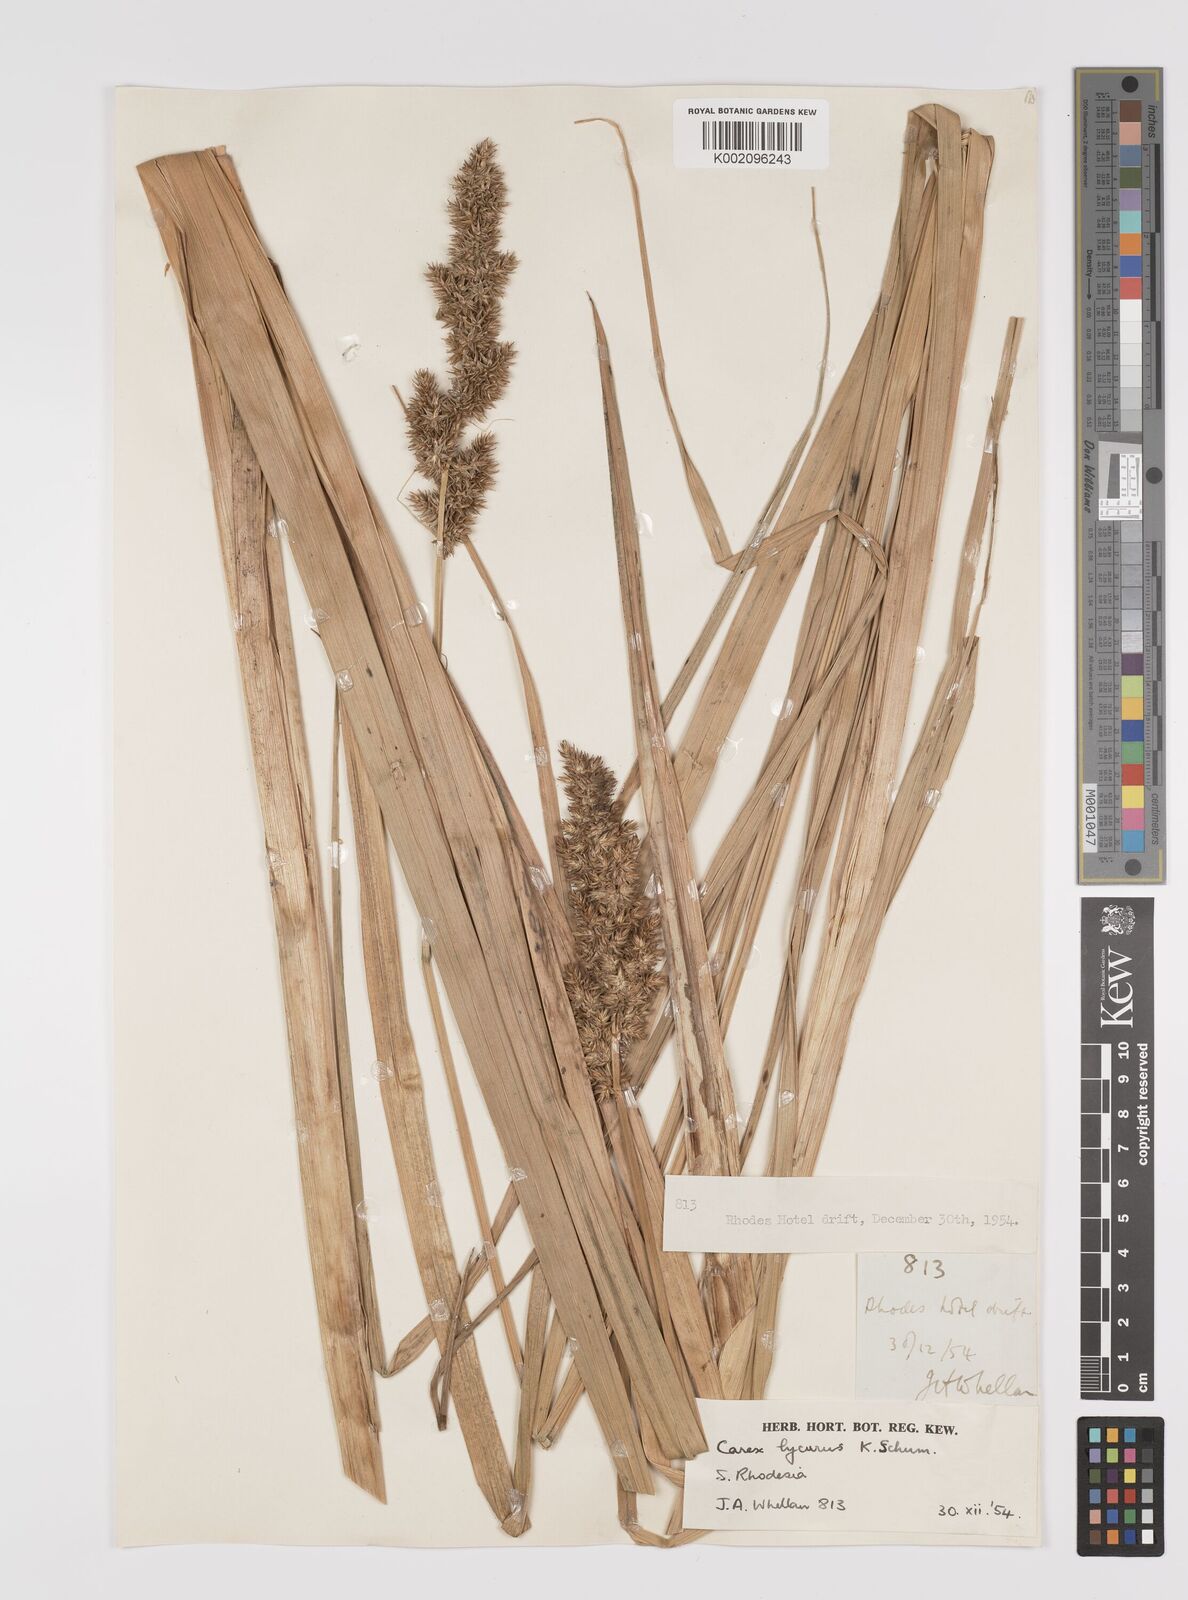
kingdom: Plantae
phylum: Tracheophyta
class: Liliopsida
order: Poales
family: Cyperaceae
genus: Carex
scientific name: Carex lycurus
